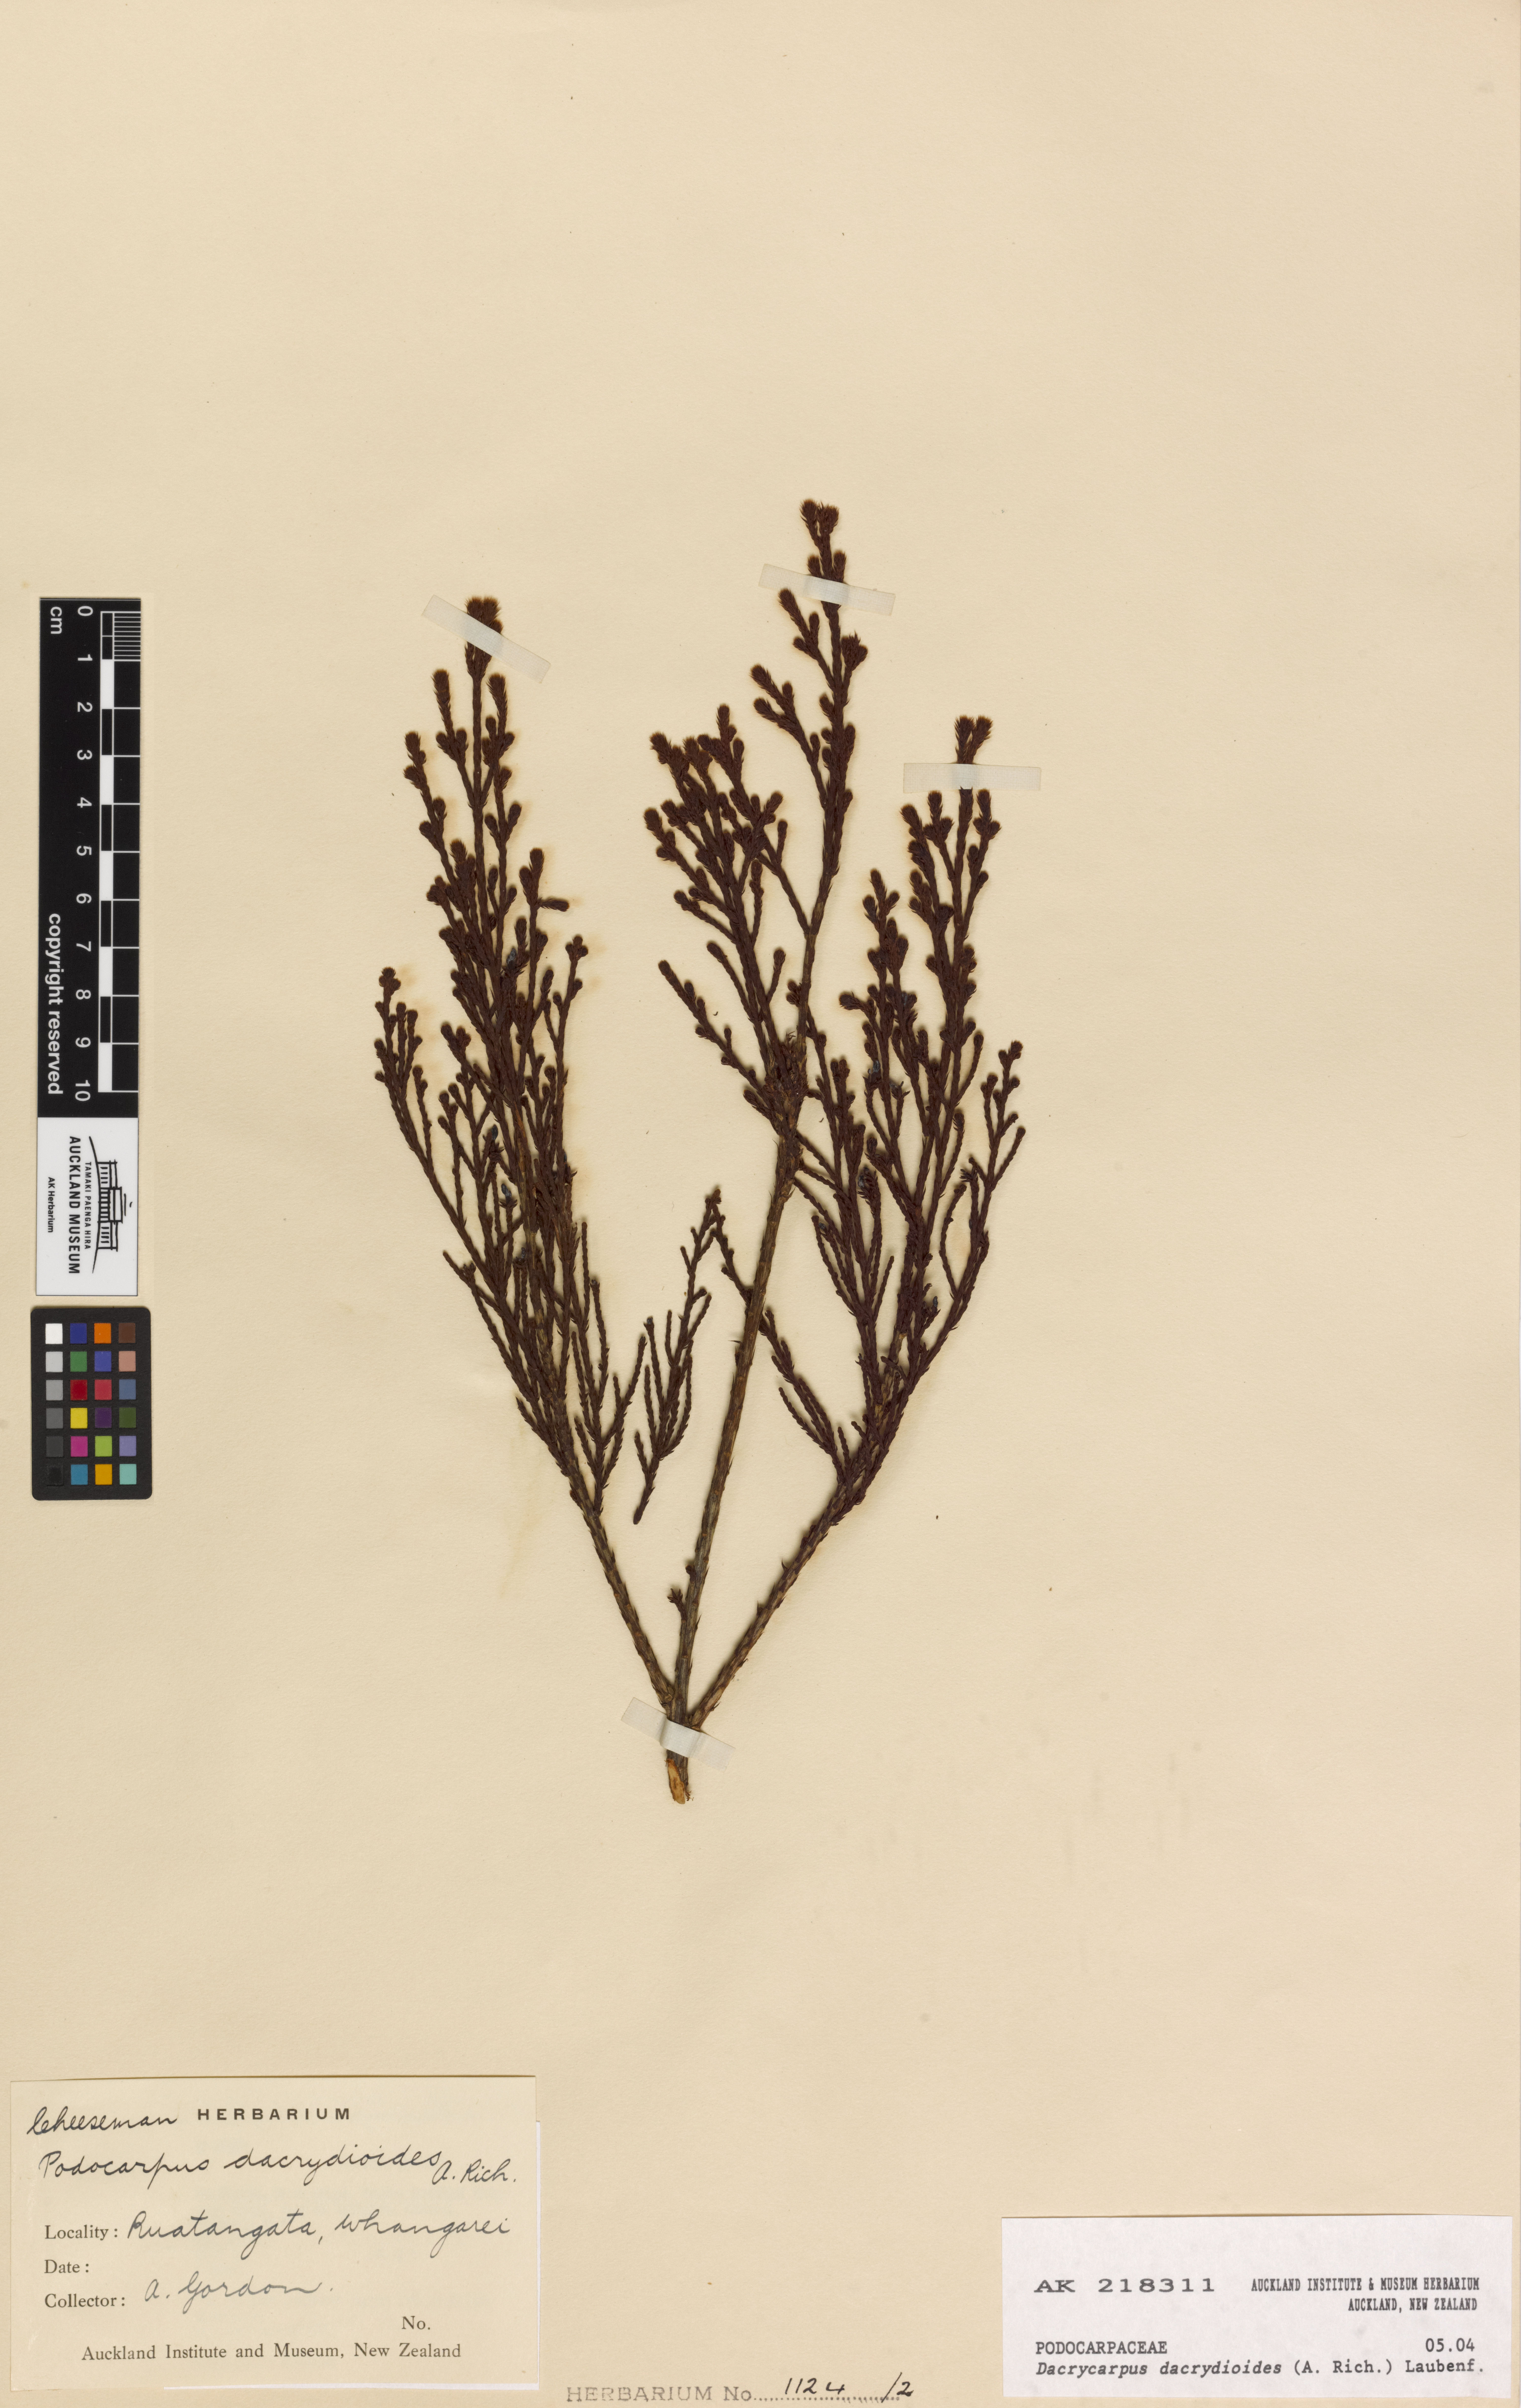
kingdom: Plantae
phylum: Tracheophyta
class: Pinopsida
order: Pinales
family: Podocarpaceae
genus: Dacrycarpus
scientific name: Dacrycarpus dacrydioides
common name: White pine
